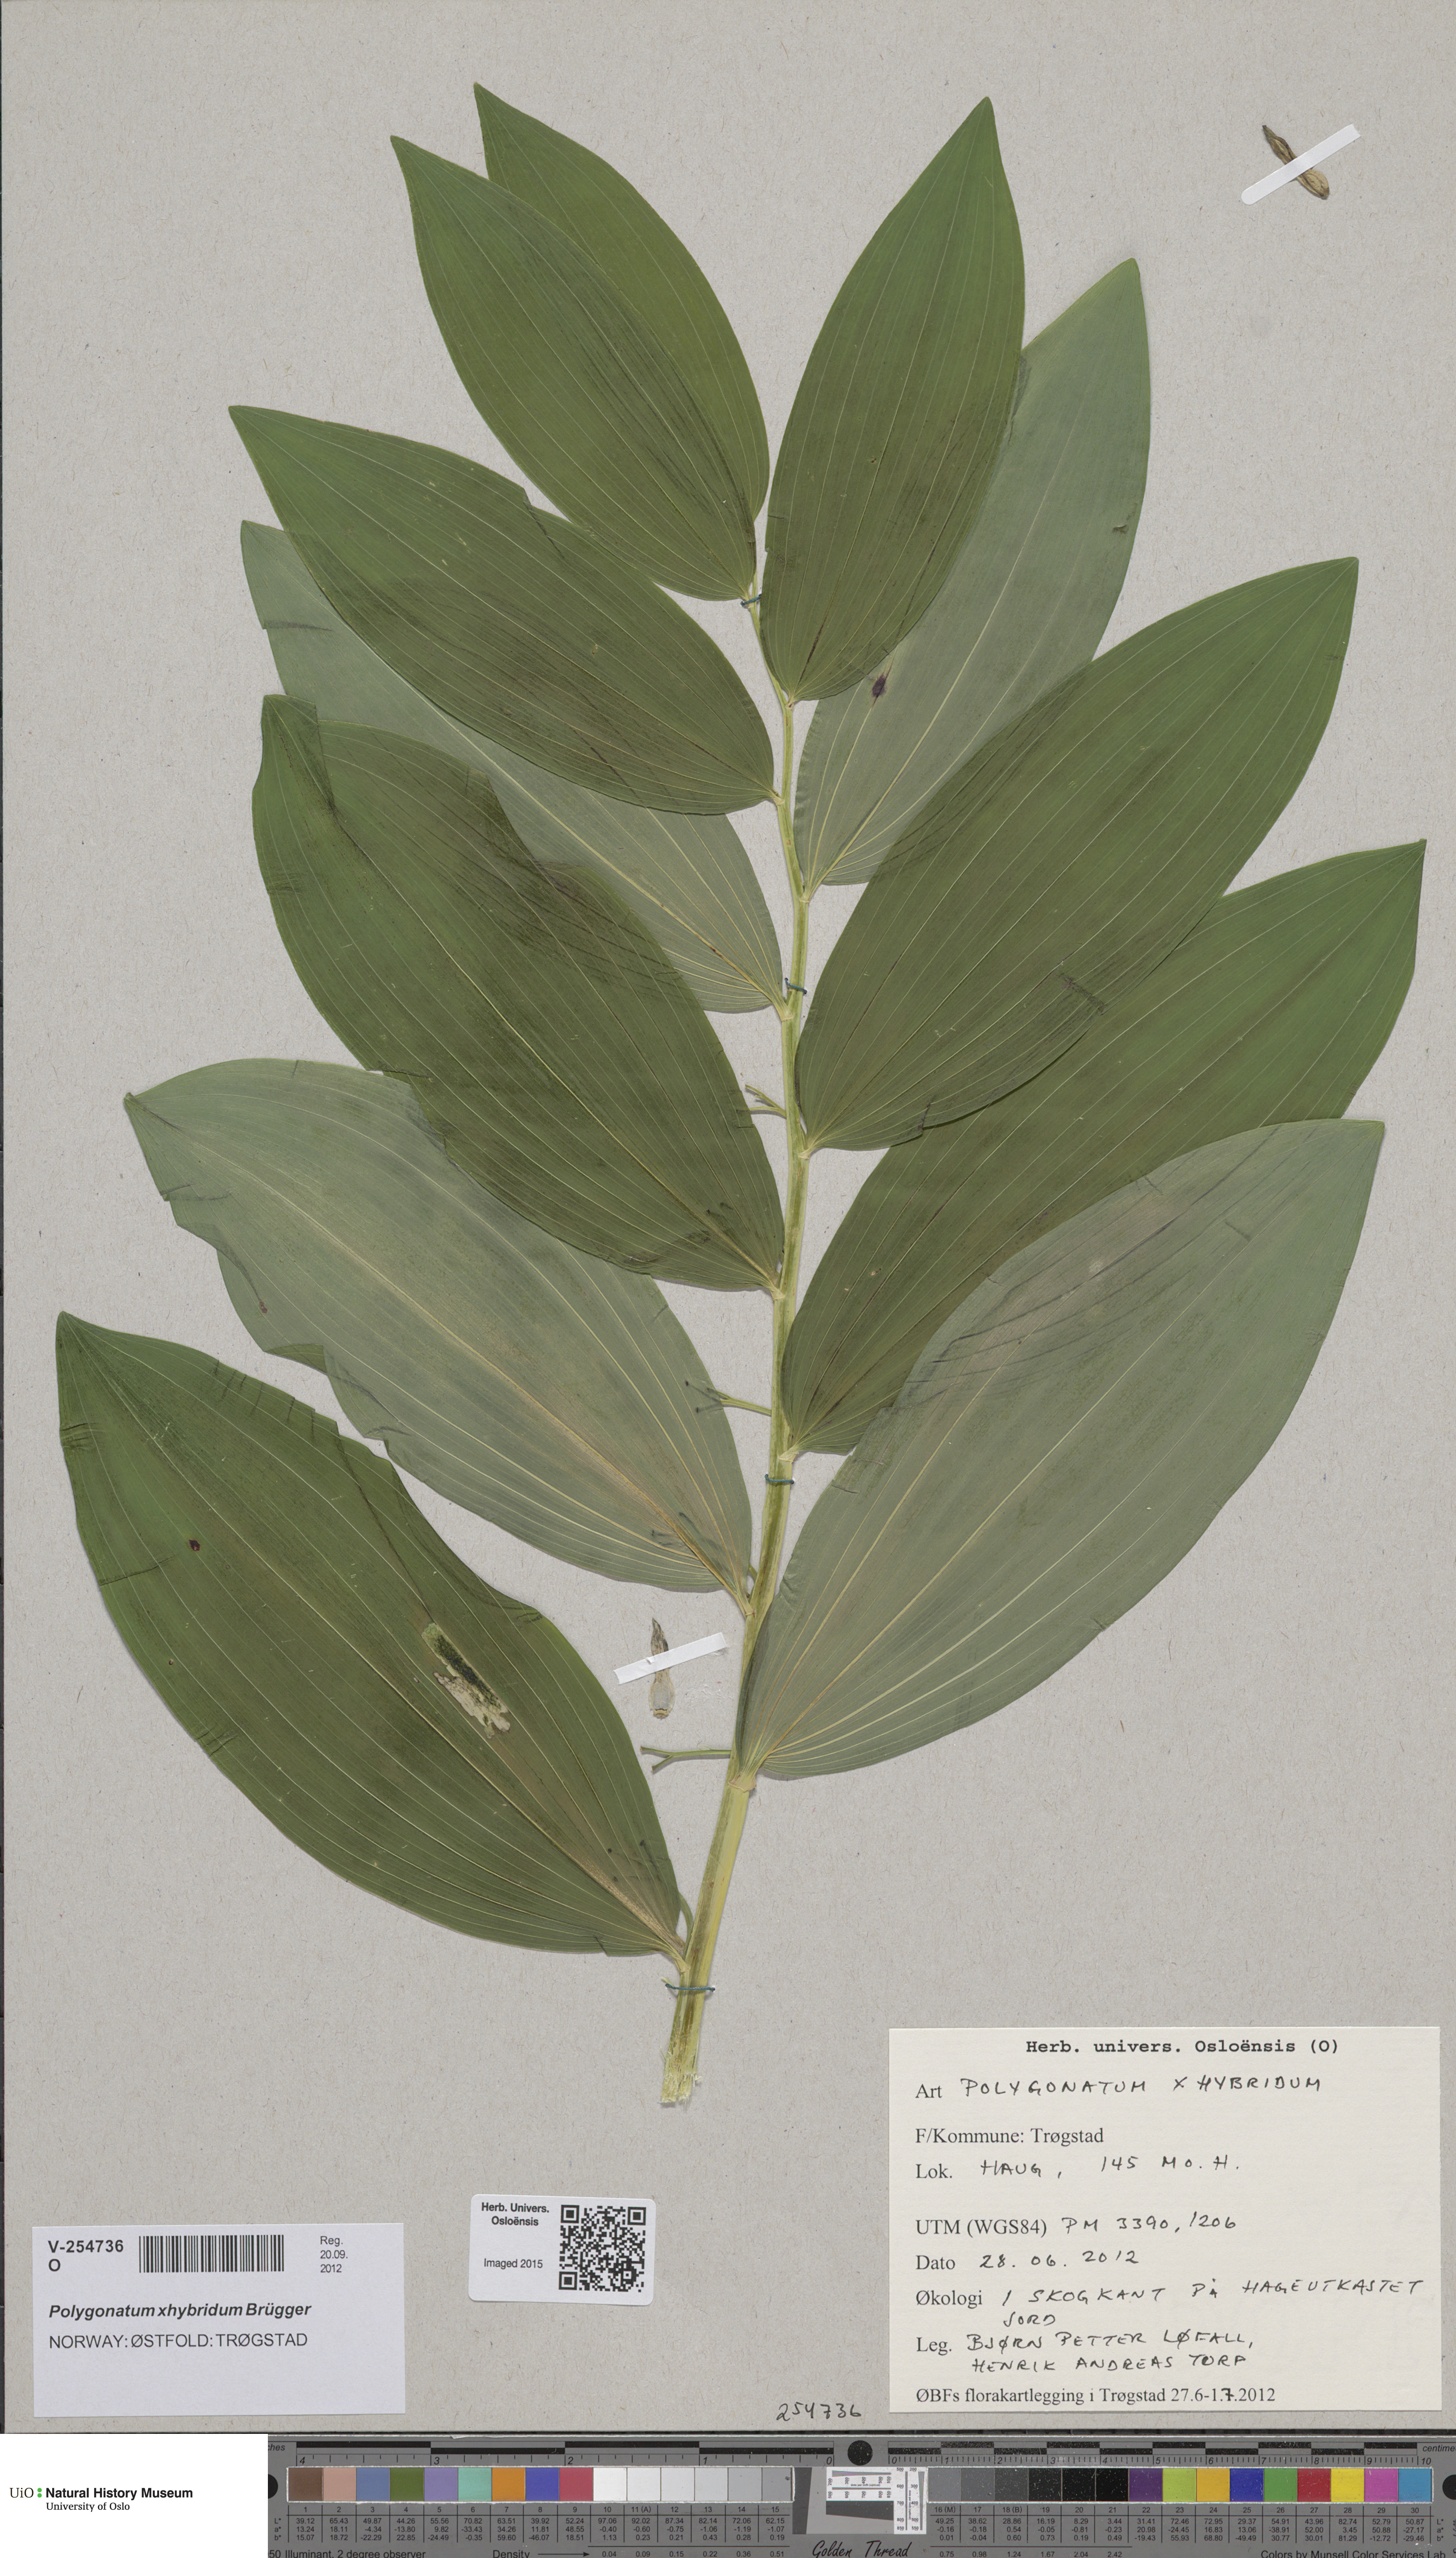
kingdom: Plantae
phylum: Tracheophyta
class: Liliopsida
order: Asparagales
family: Asparagaceae
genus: Polygonatum
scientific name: Polygonatum hybridum
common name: Garden solomon's-seal
